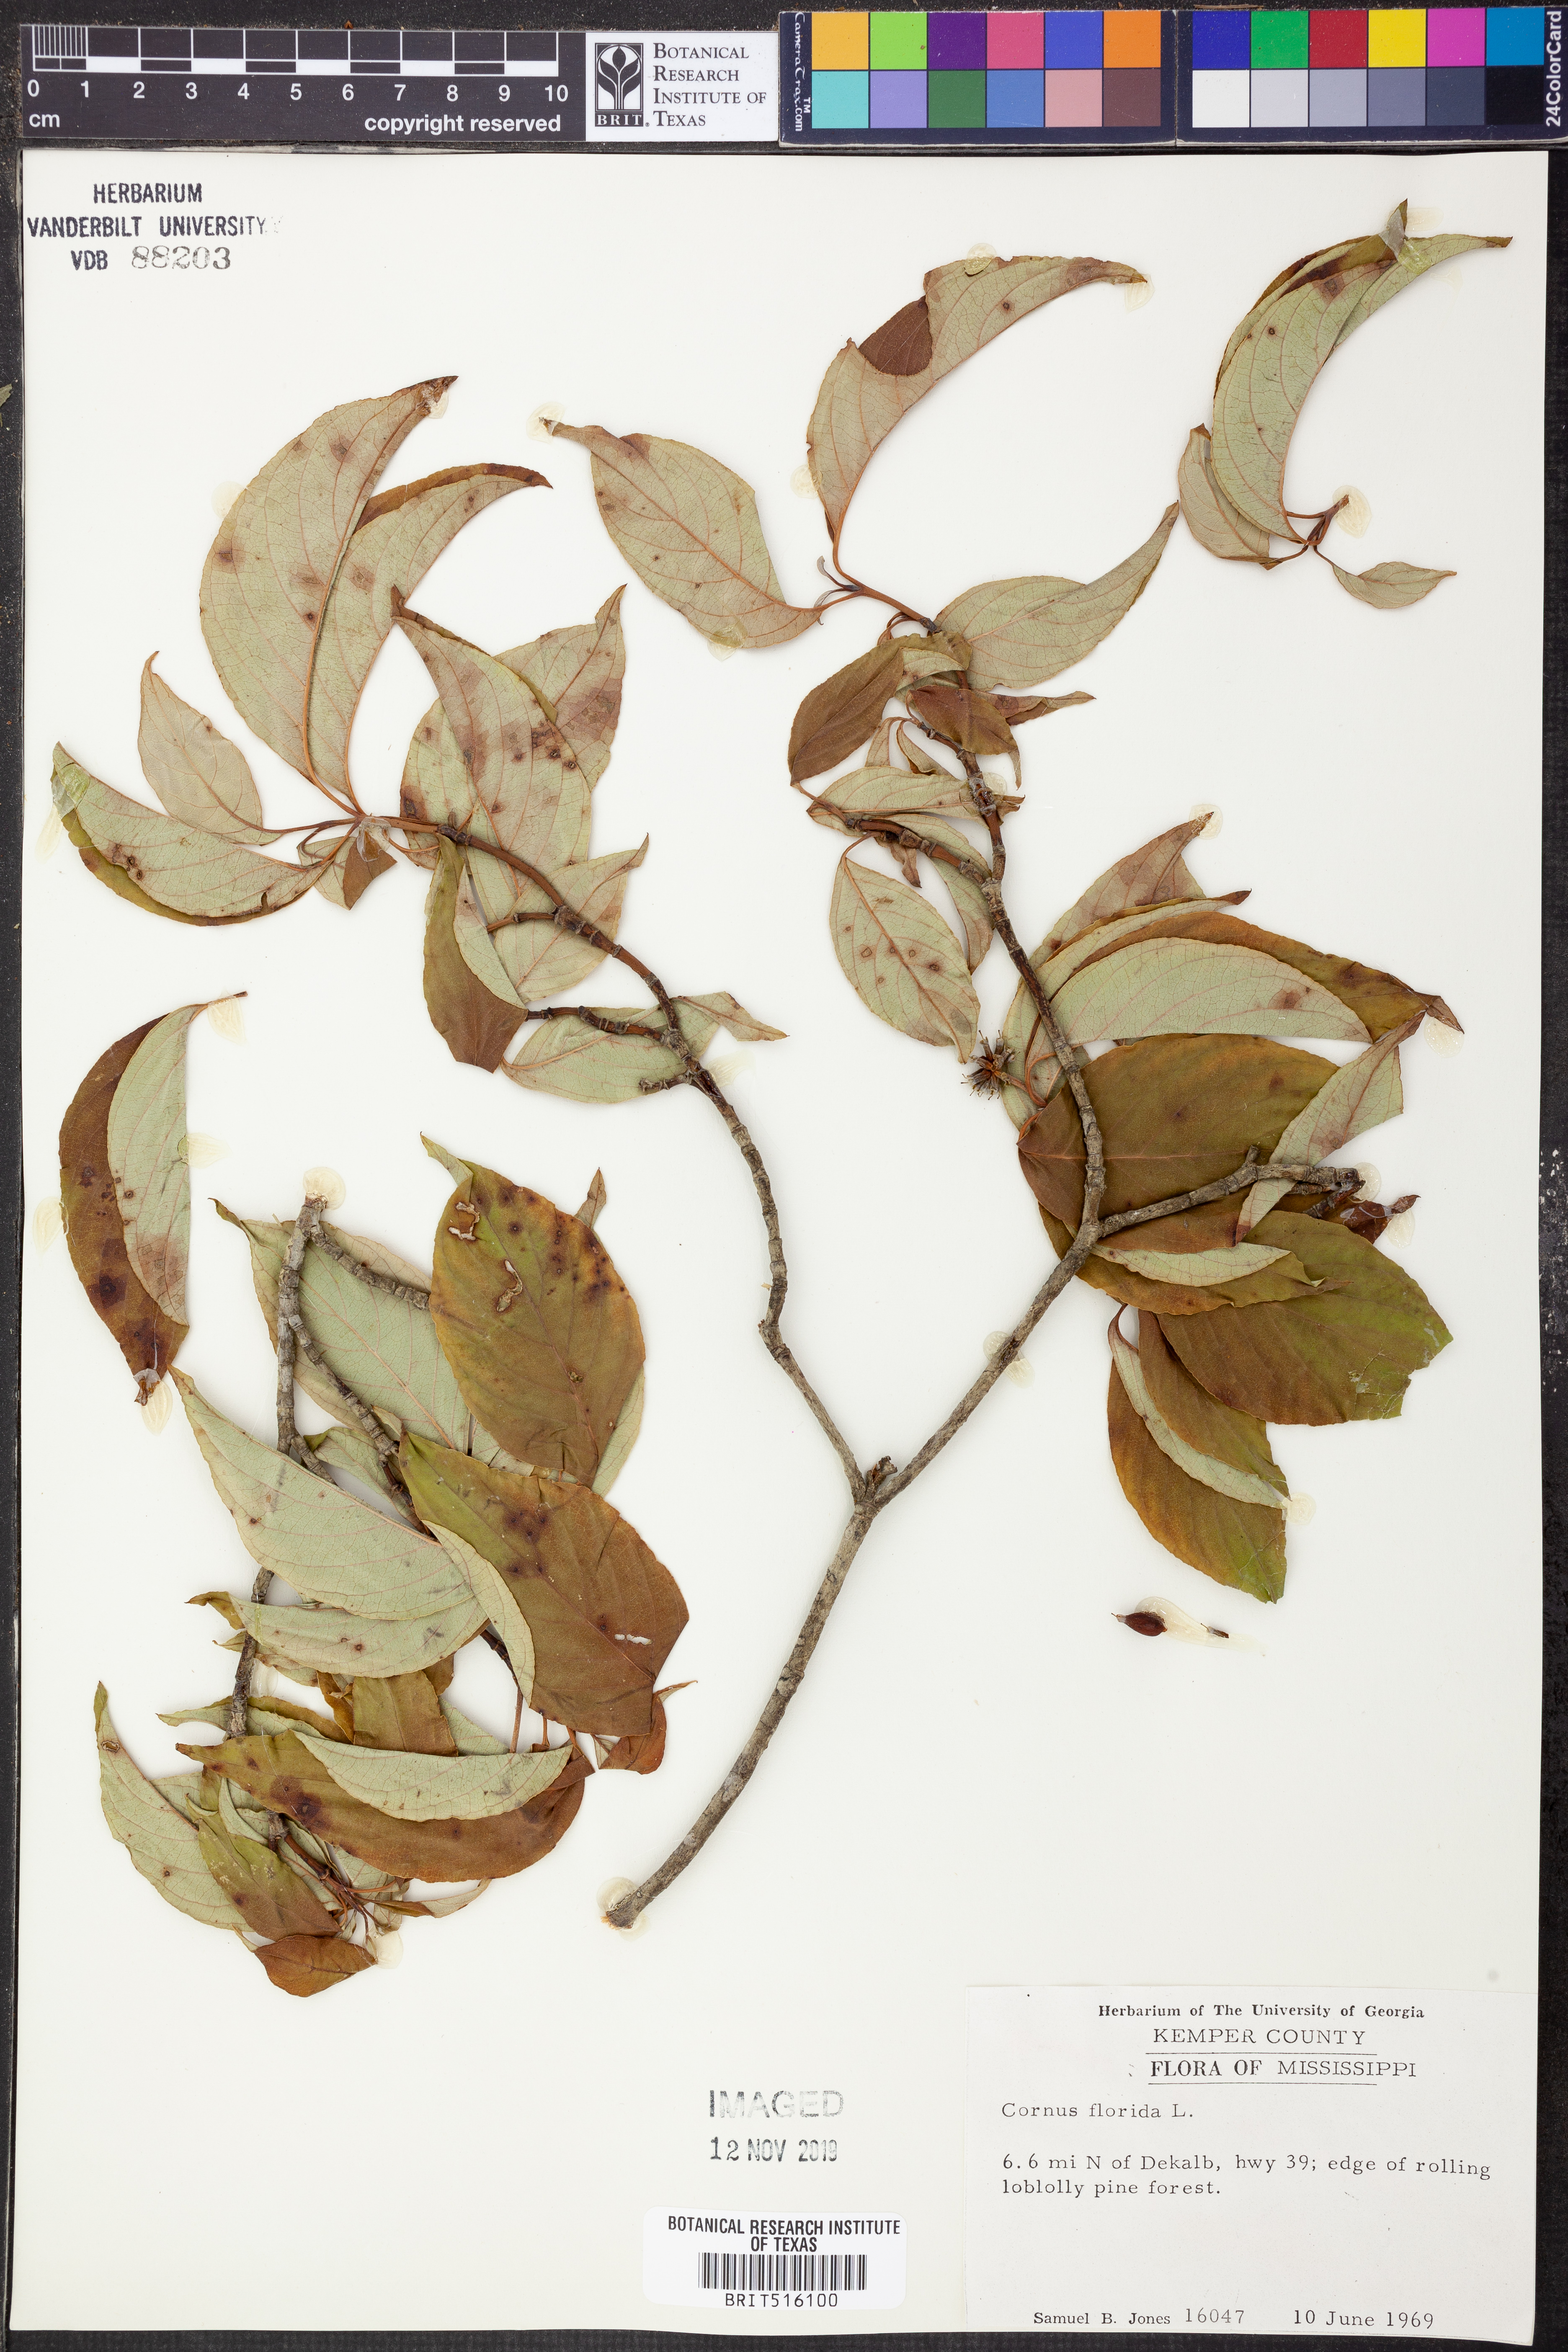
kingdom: Plantae
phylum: Tracheophyta
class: Magnoliopsida
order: Cornales
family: Cornaceae
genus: Cornus
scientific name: Cornus florida
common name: Flowering dogwood
